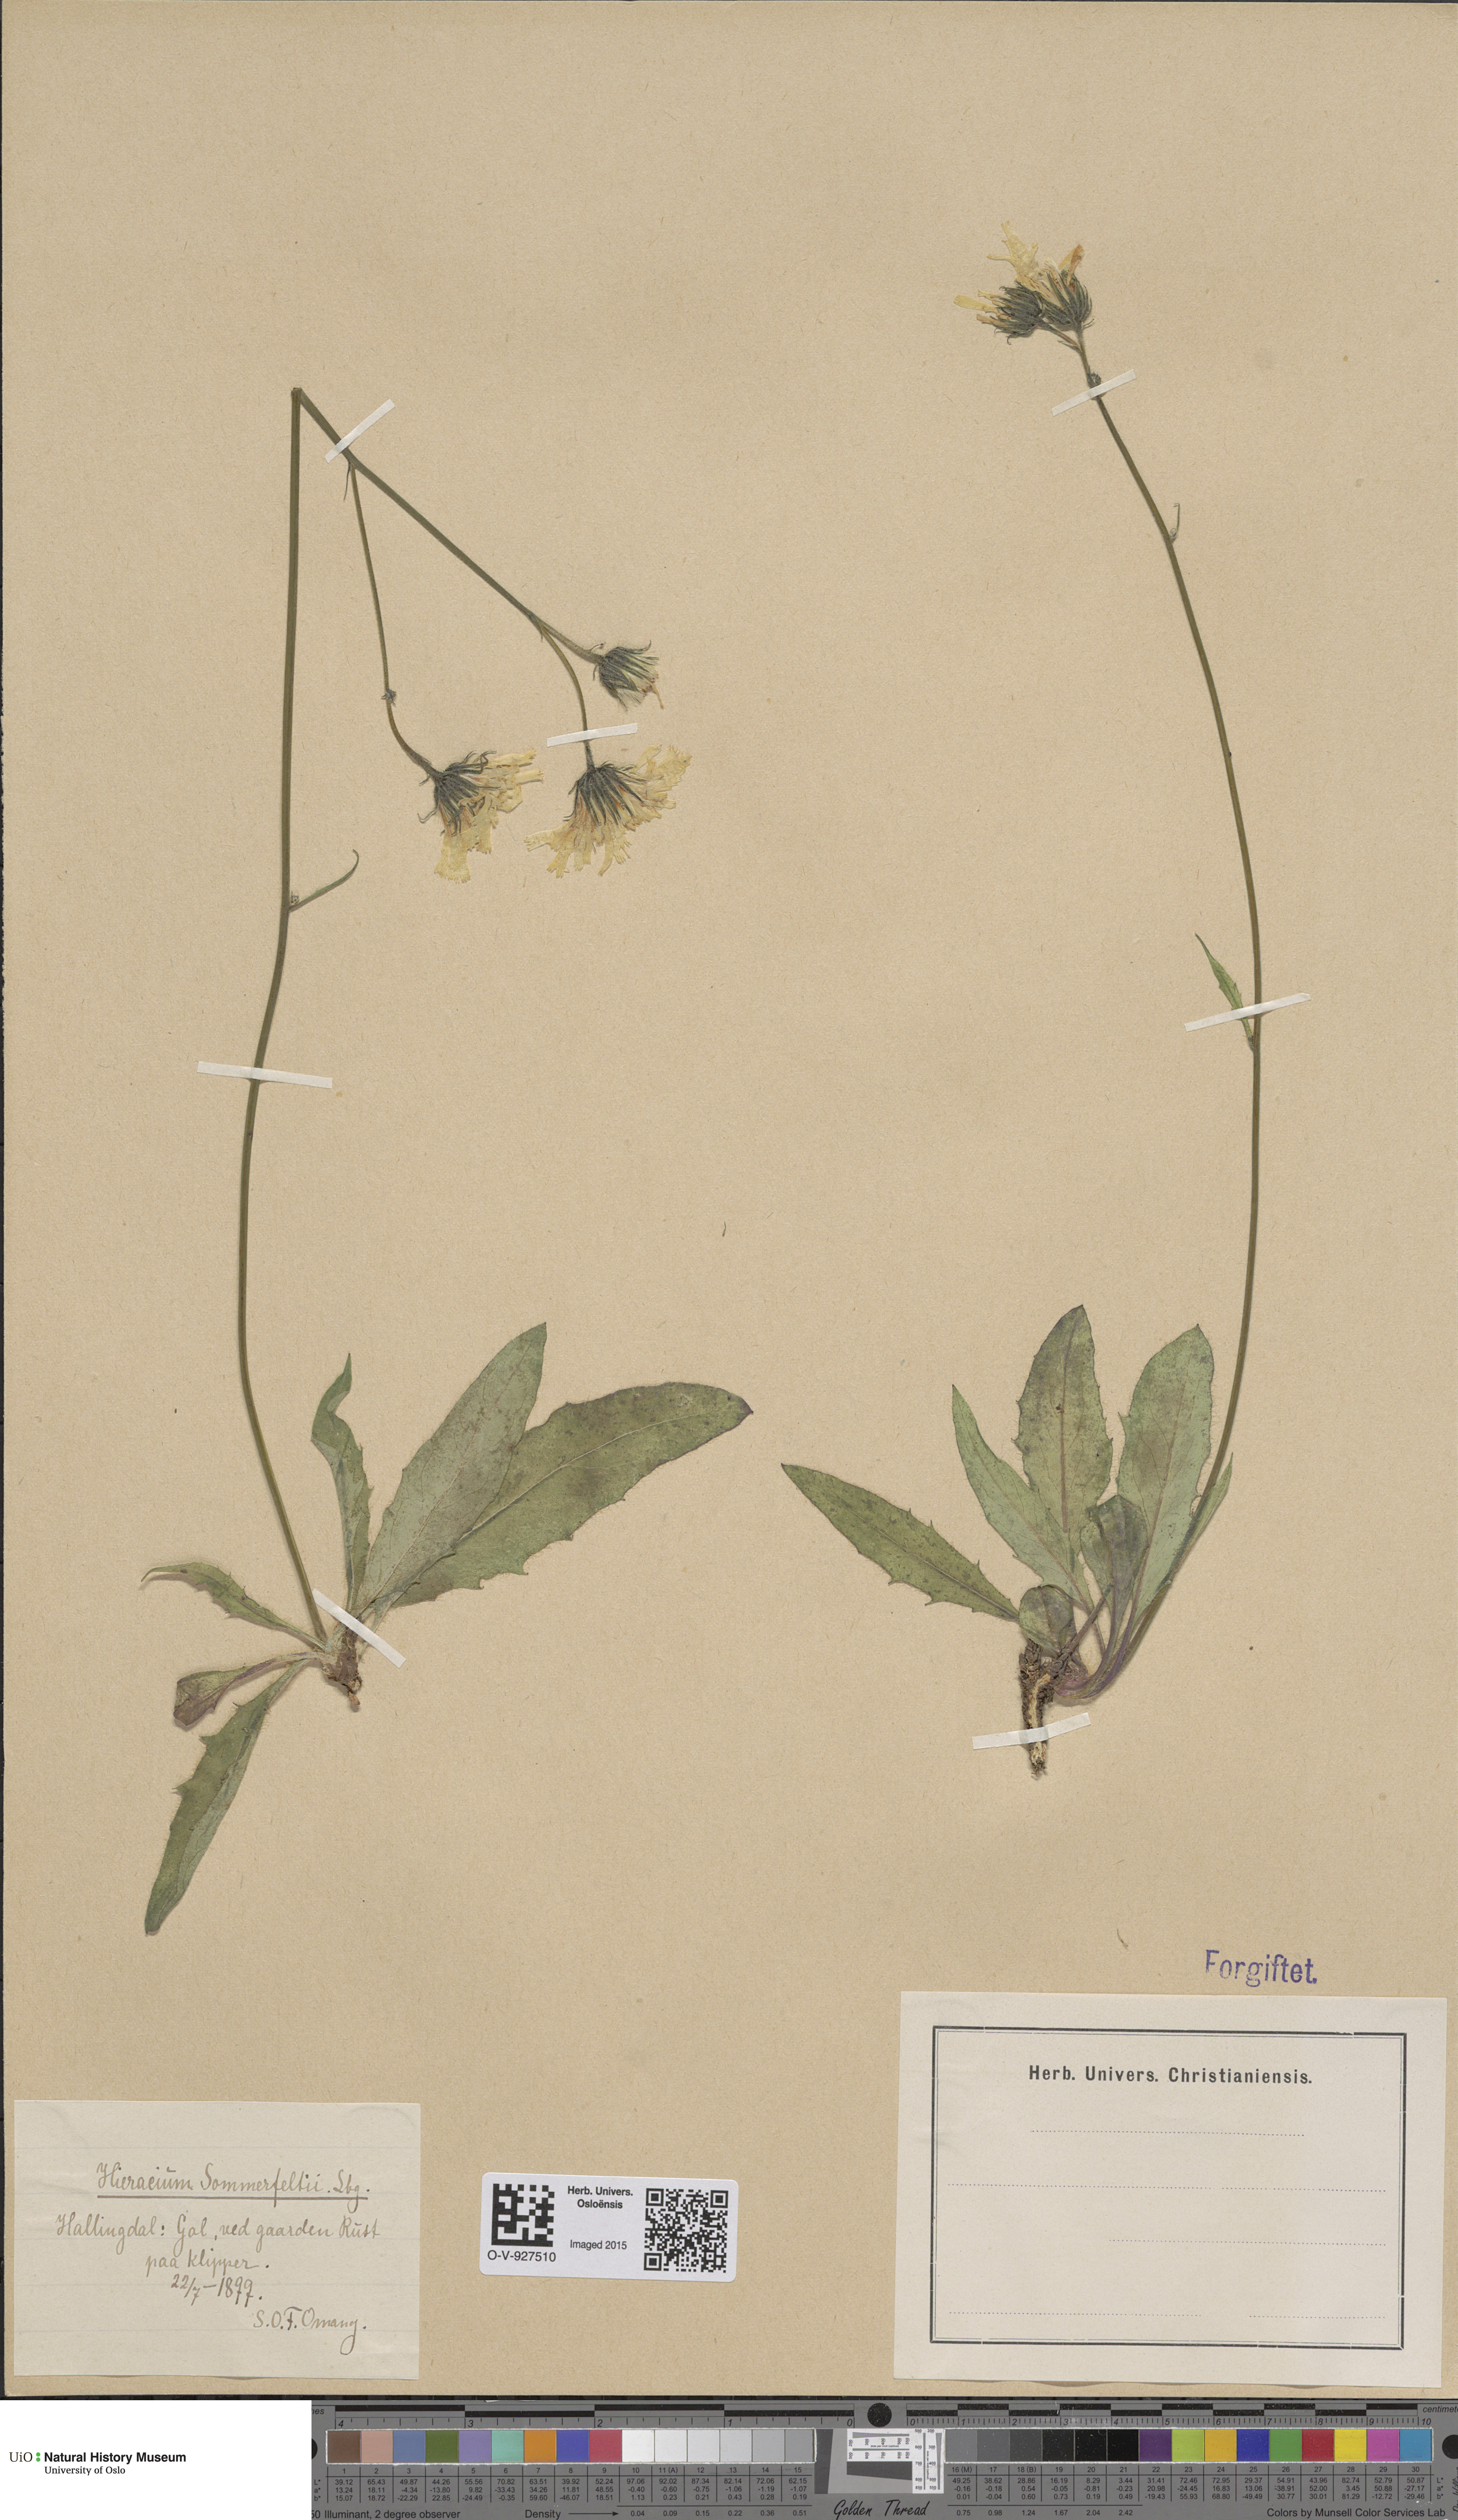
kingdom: Plantae
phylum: Tracheophyta
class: Magnoliopsida
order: Asterales
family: Asteraceae
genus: Hieracium
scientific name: Hieracium sommerfeltii
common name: Sommerfelt's hawkweed
